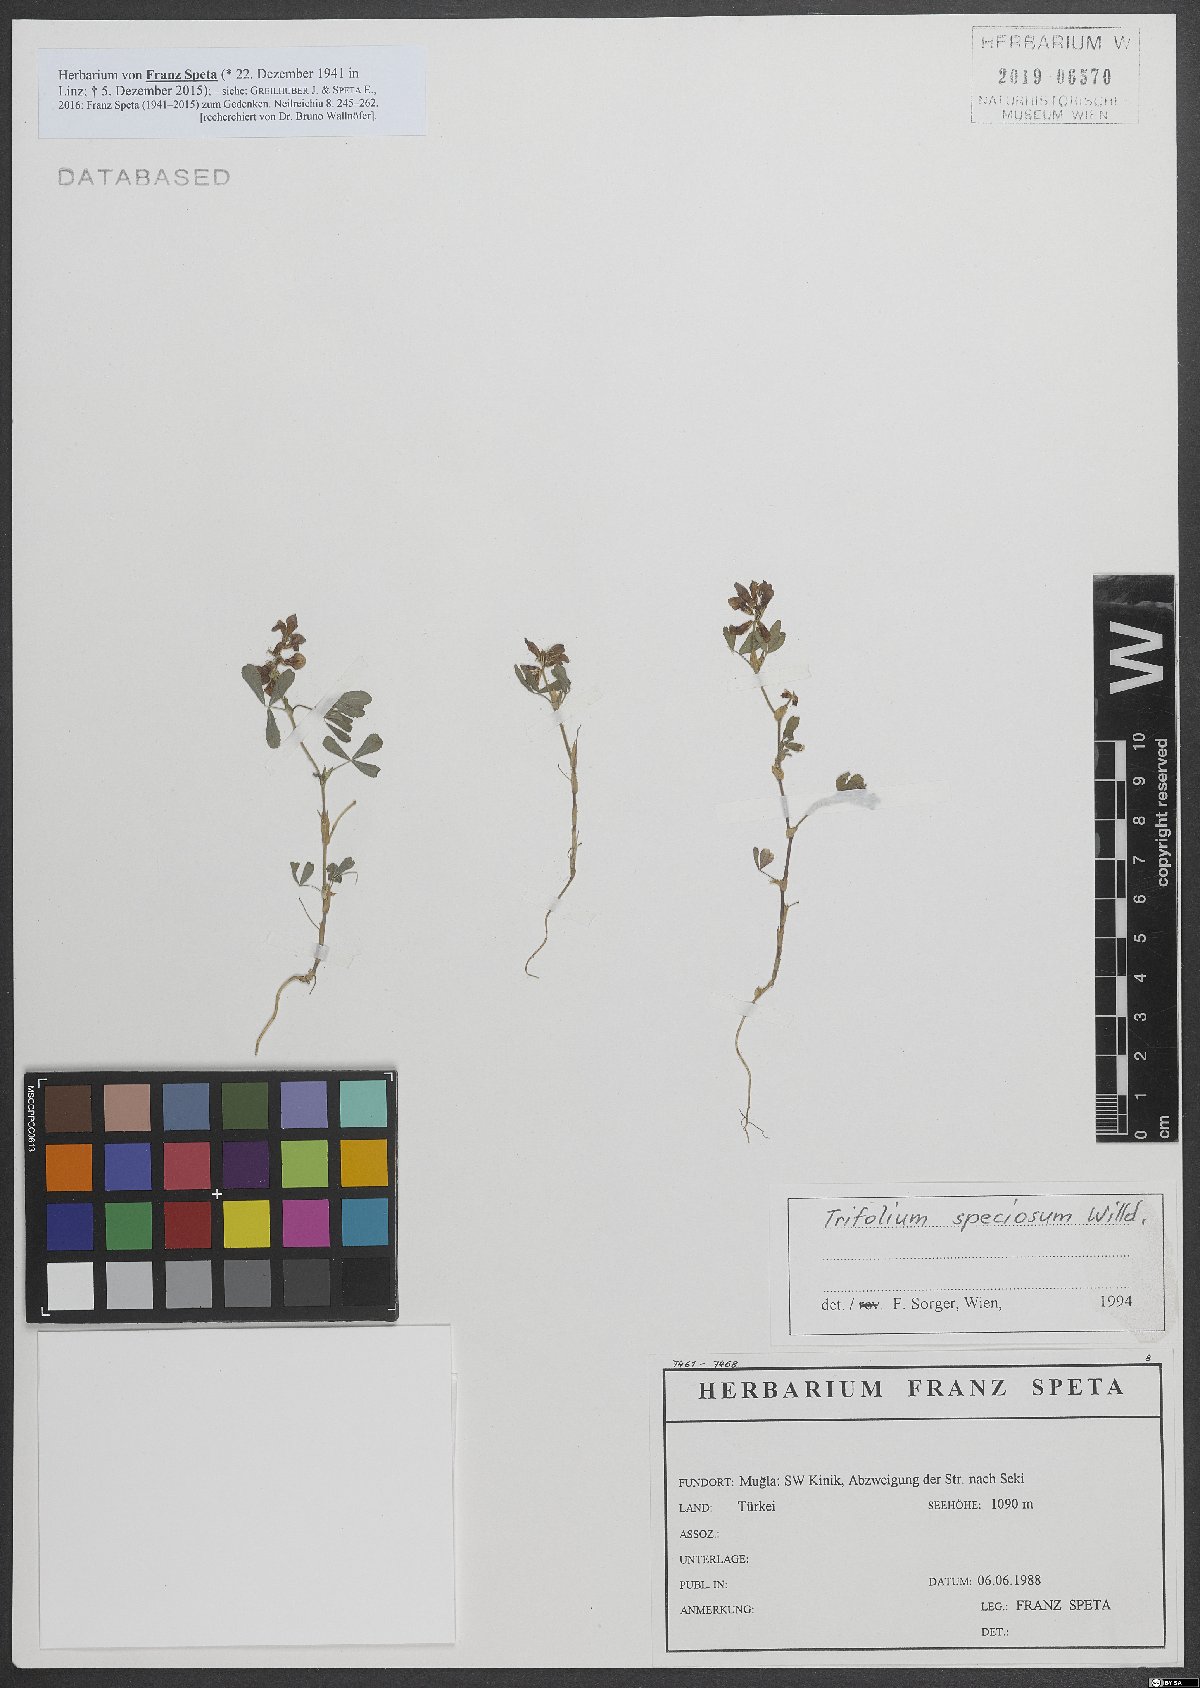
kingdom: Plantae
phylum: Tracheophyta
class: Magnoliopsida
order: Fabales
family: Fabaceae
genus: Trifolium
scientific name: Trifolium grandiflorum
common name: Large-flower hop clover
